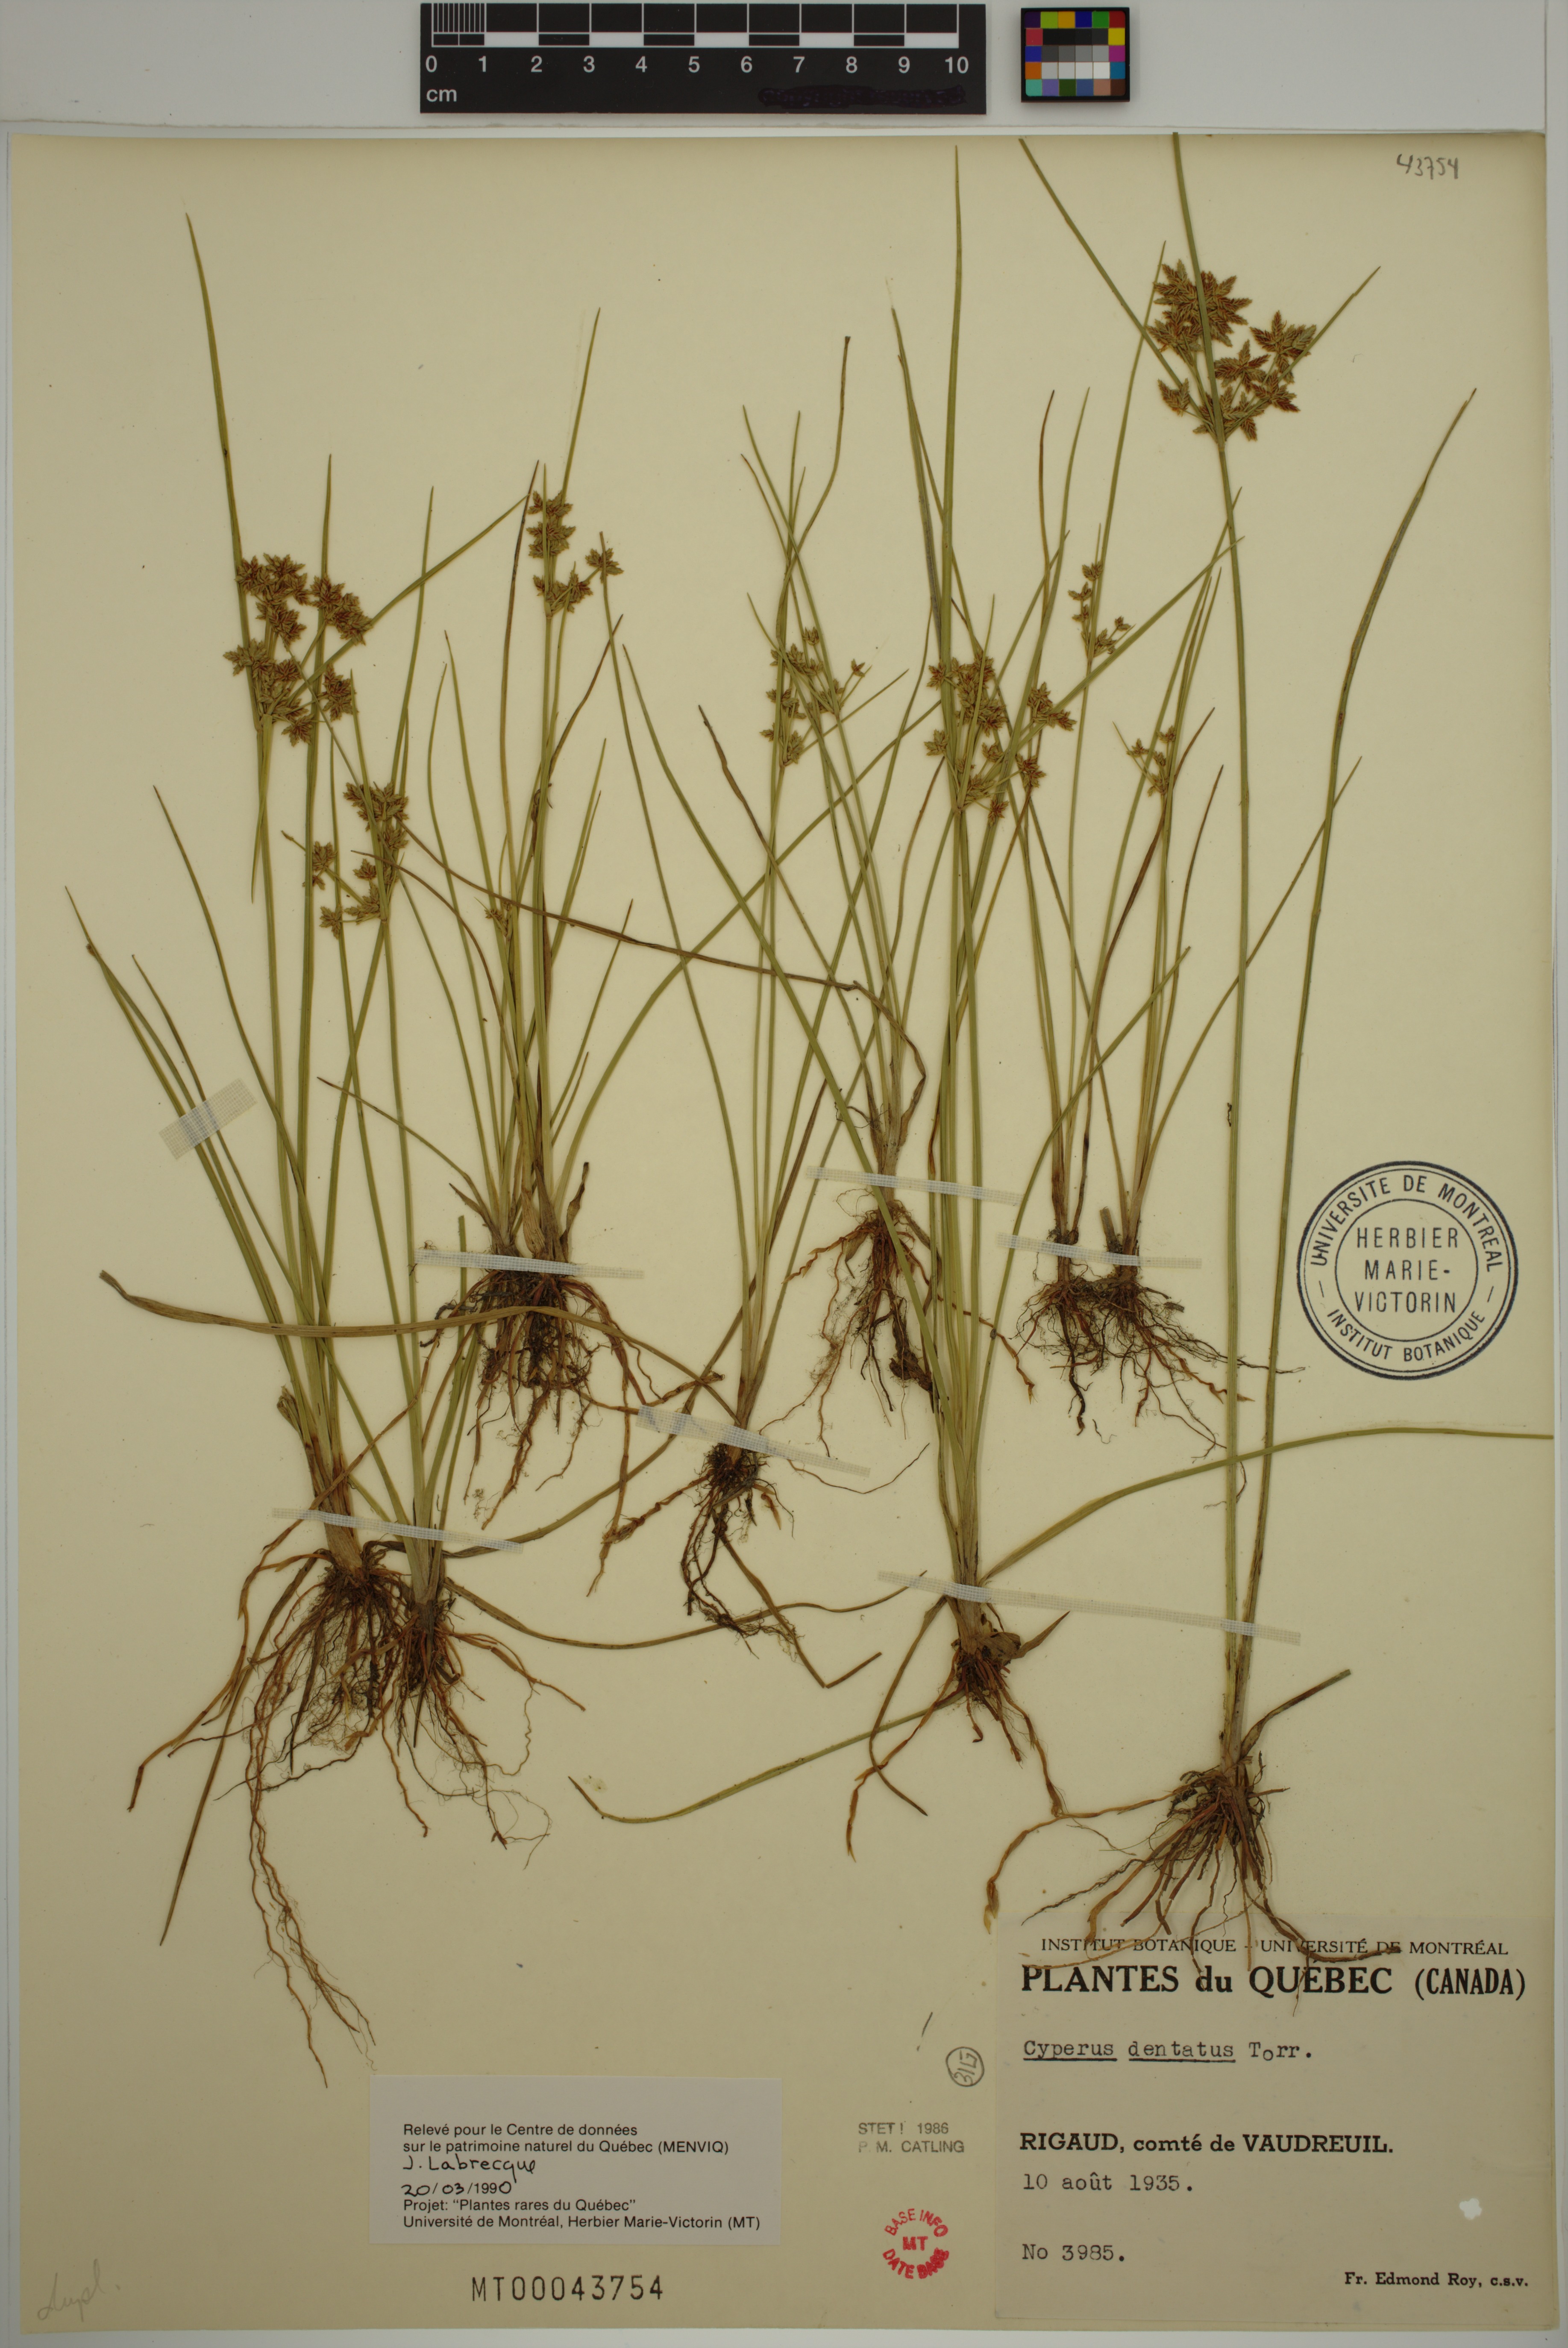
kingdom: Plantae
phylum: Tracheophyta
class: Liliopsida
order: Poales
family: Cyperaceae
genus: Cyperus
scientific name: Cyperus dentatus
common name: Dentate umbrella sedge
